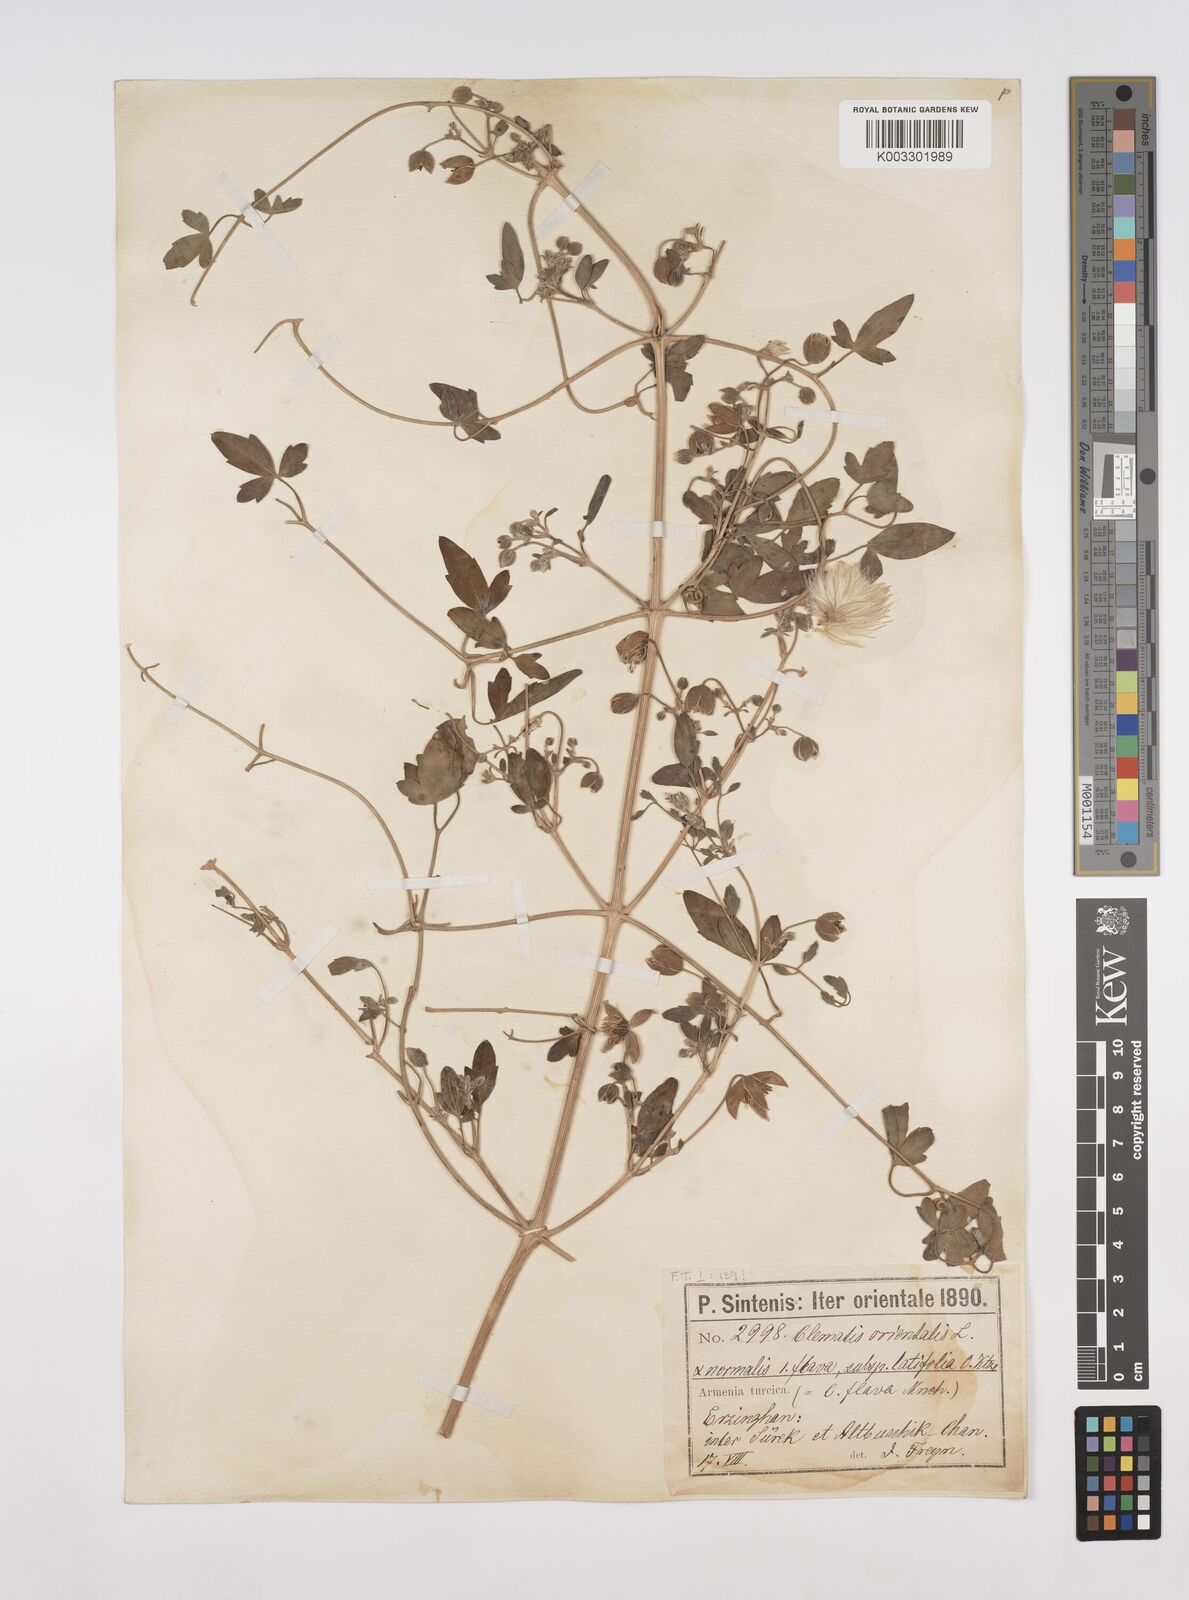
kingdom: Plantae
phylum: Tracheophyta
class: Magnoliopsida
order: Ranunculales
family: Ranunculaceae
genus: Clematis
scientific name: Clematis orientalis
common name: Oriental virgin's-bower
